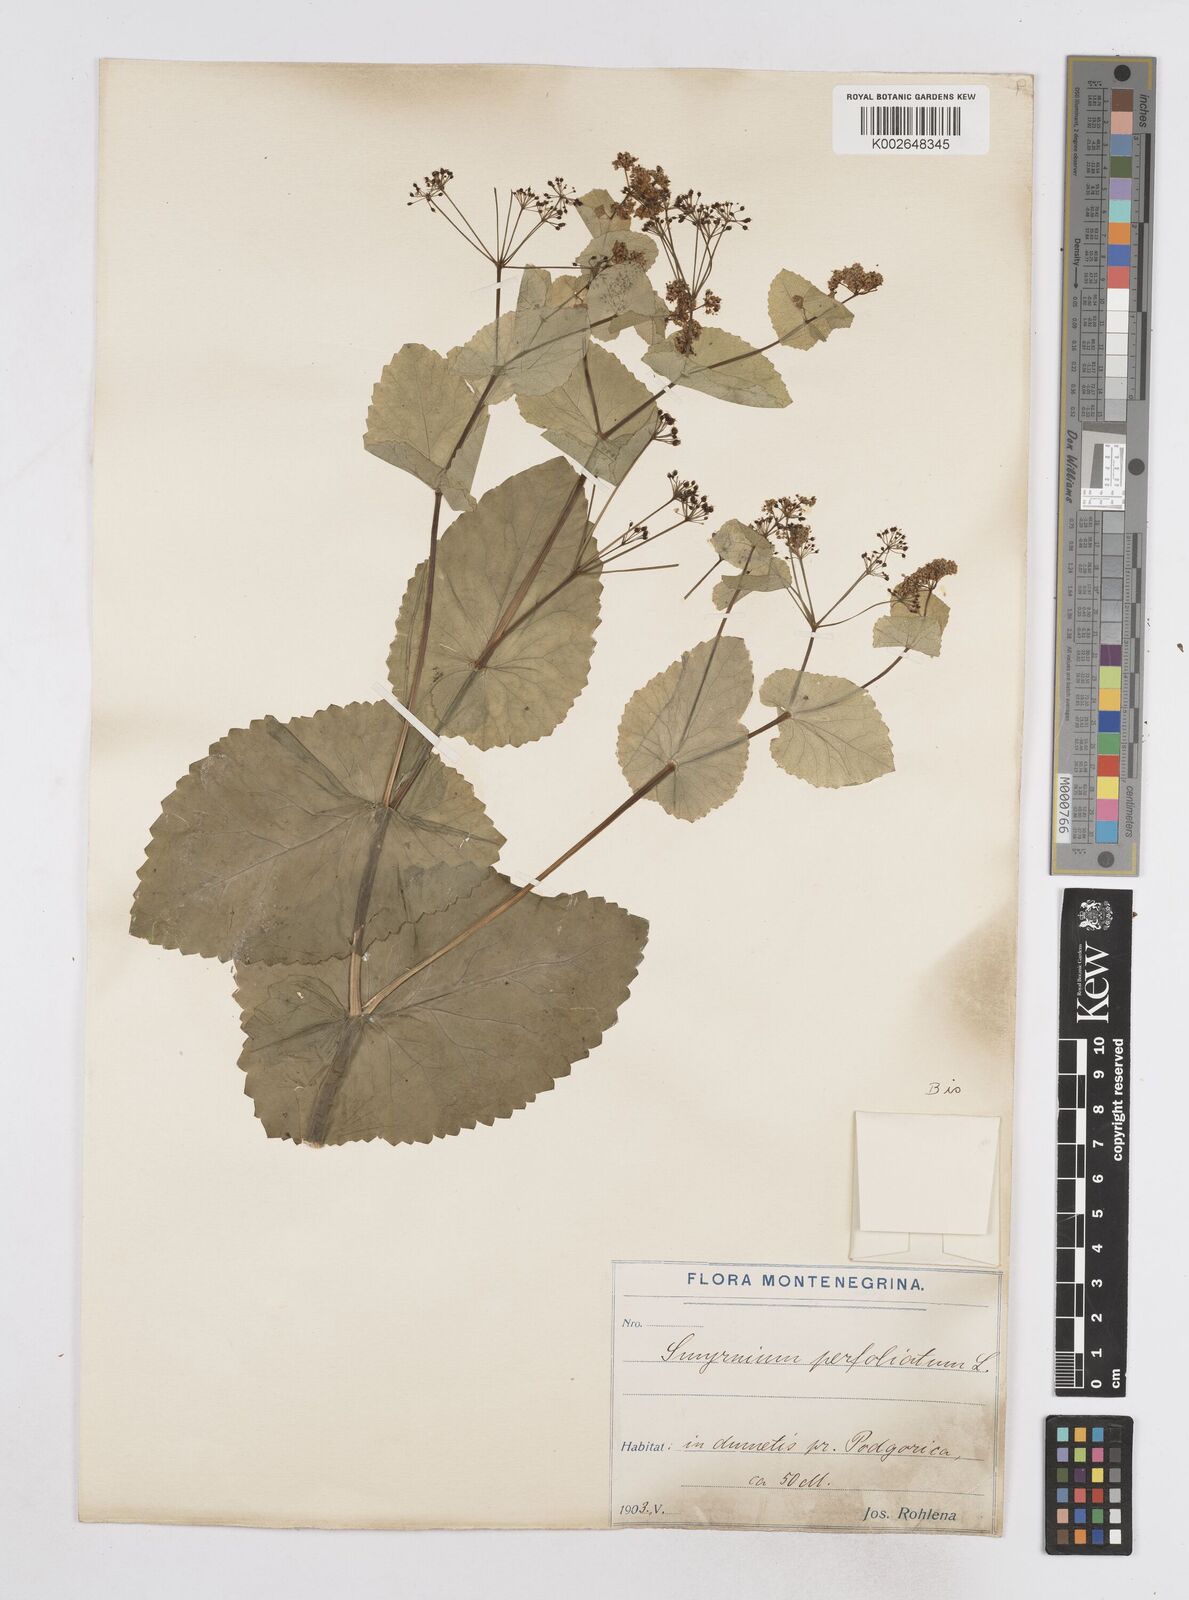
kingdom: Plantae
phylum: Tracheophyta
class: Magnoliopsida
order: Apiales
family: Apiaceae
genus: Smyrnium
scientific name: Smyrnium perfoliatum
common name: Perfoliate alexanders
